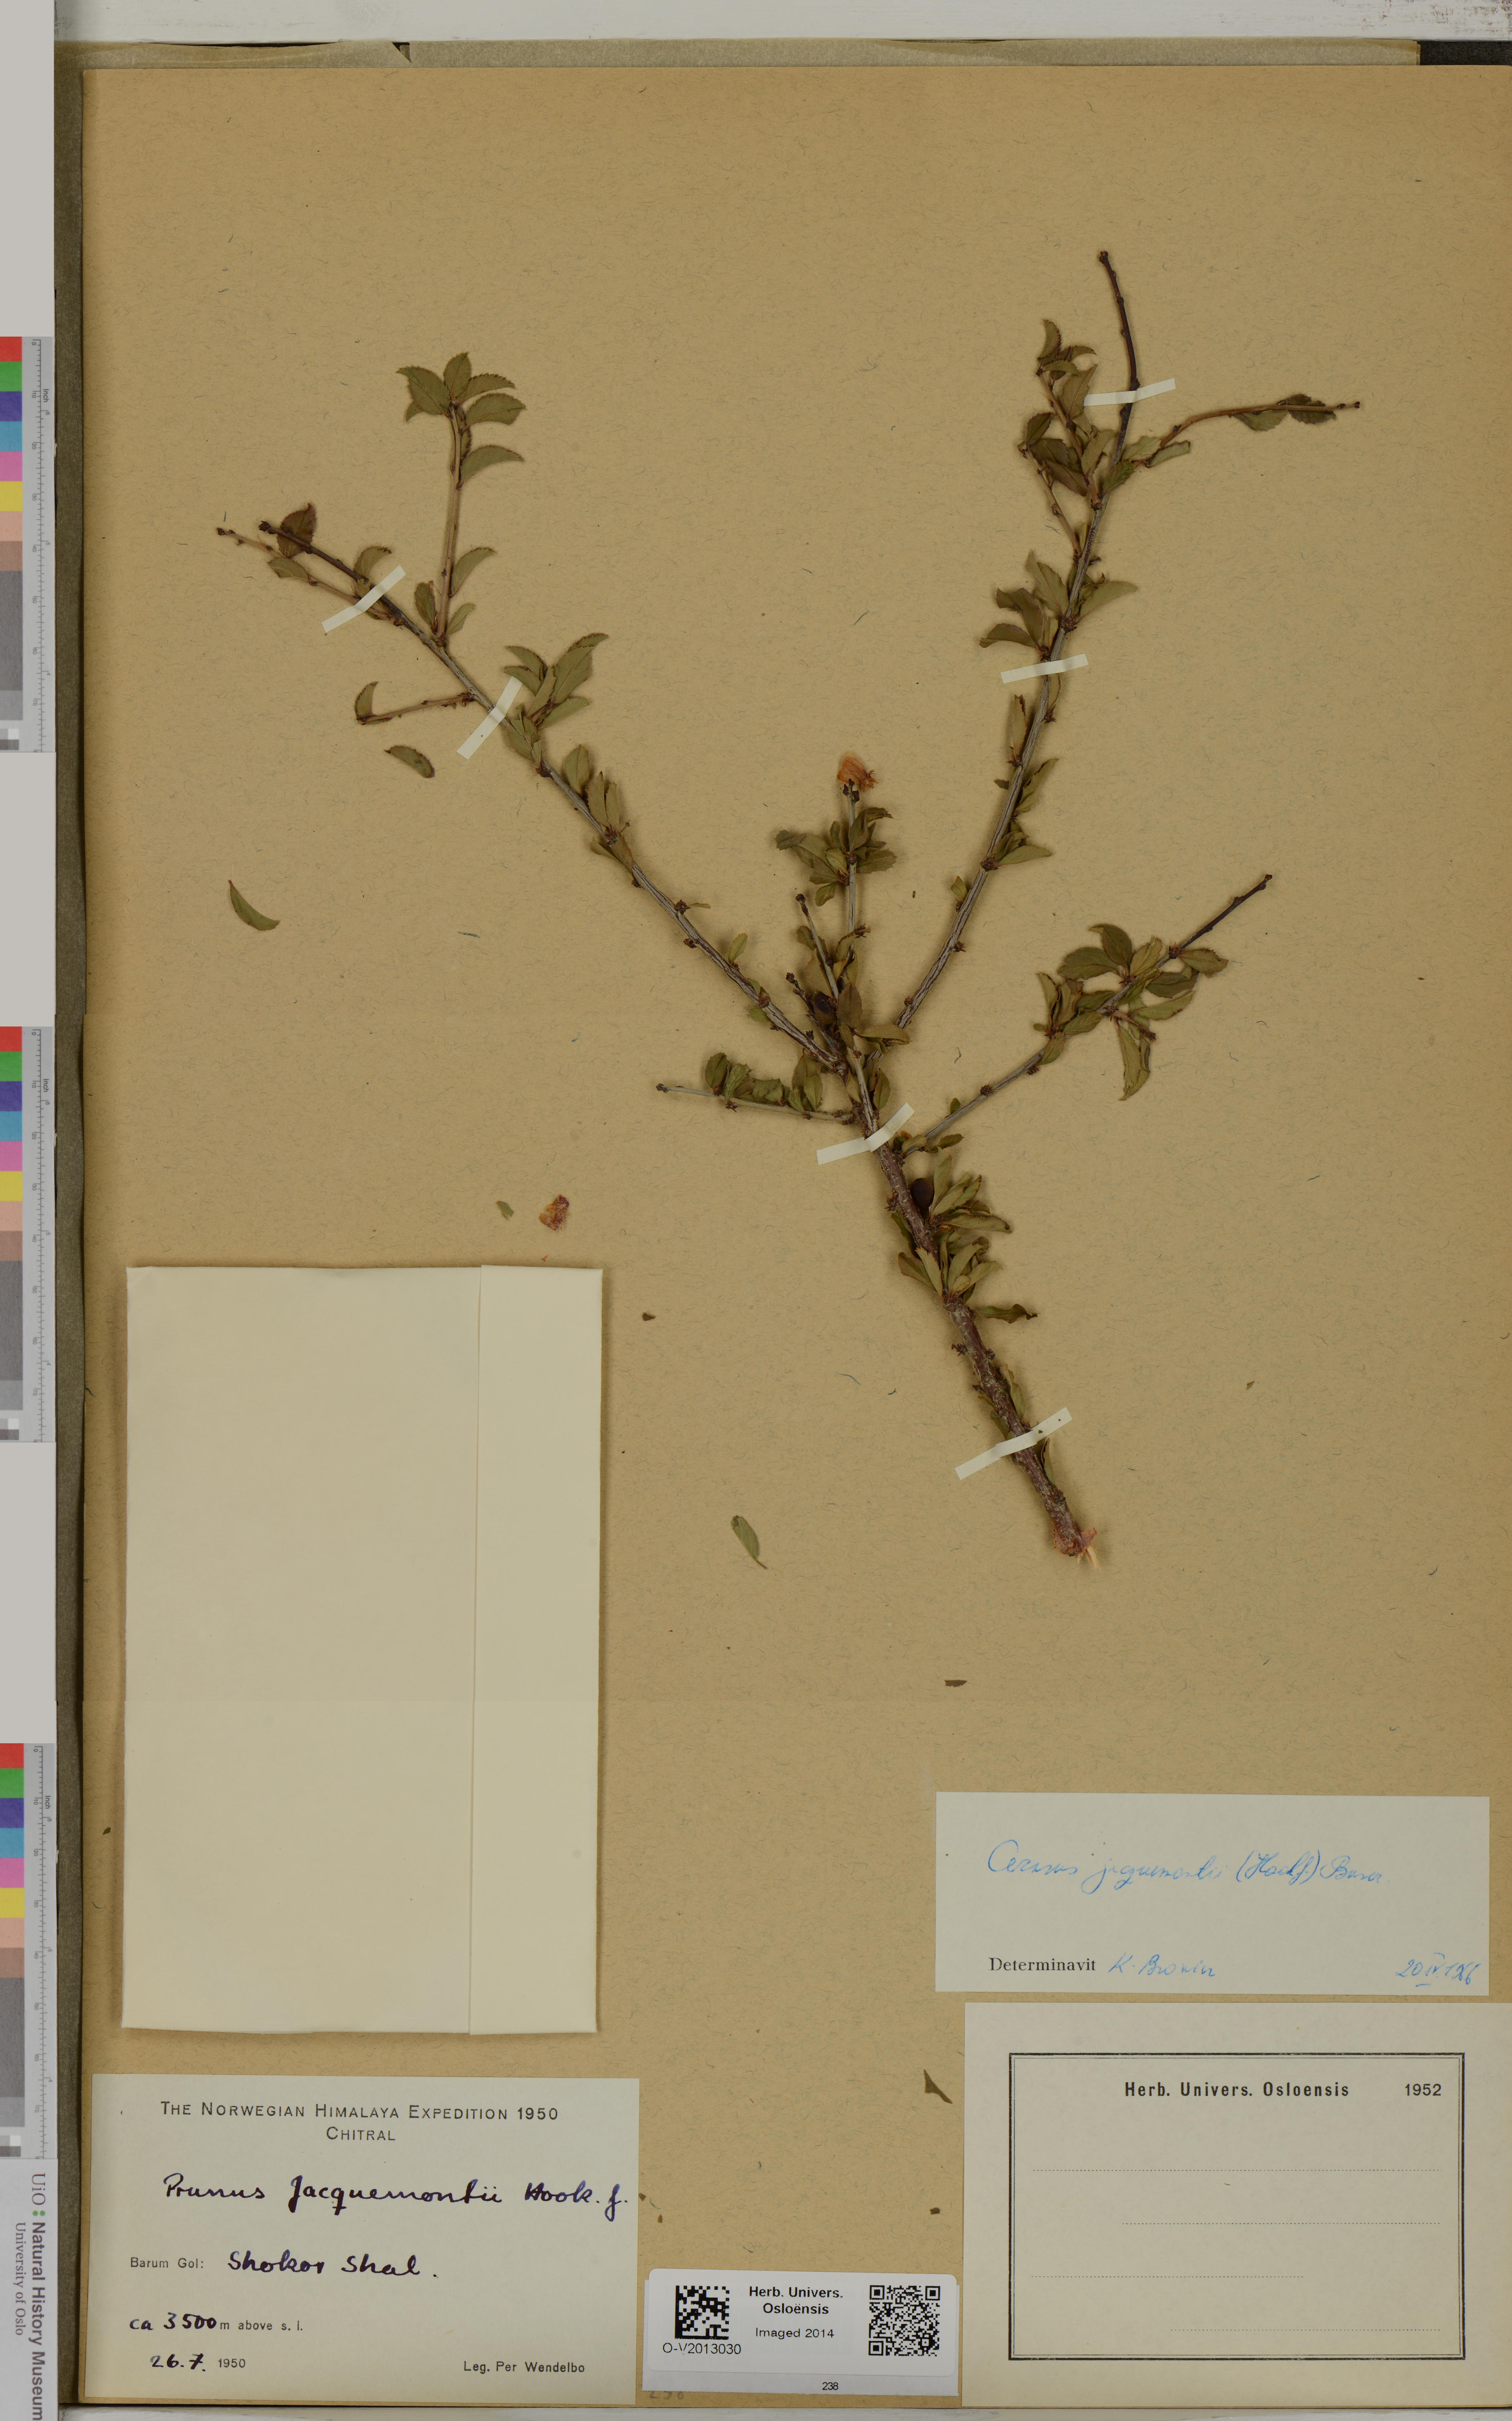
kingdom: Plantae
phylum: Tracheophyta
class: Magnoliopsida
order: Rosales
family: Rosaceae
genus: Prunus
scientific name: Prunus jacquemontii
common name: Flowering almond
